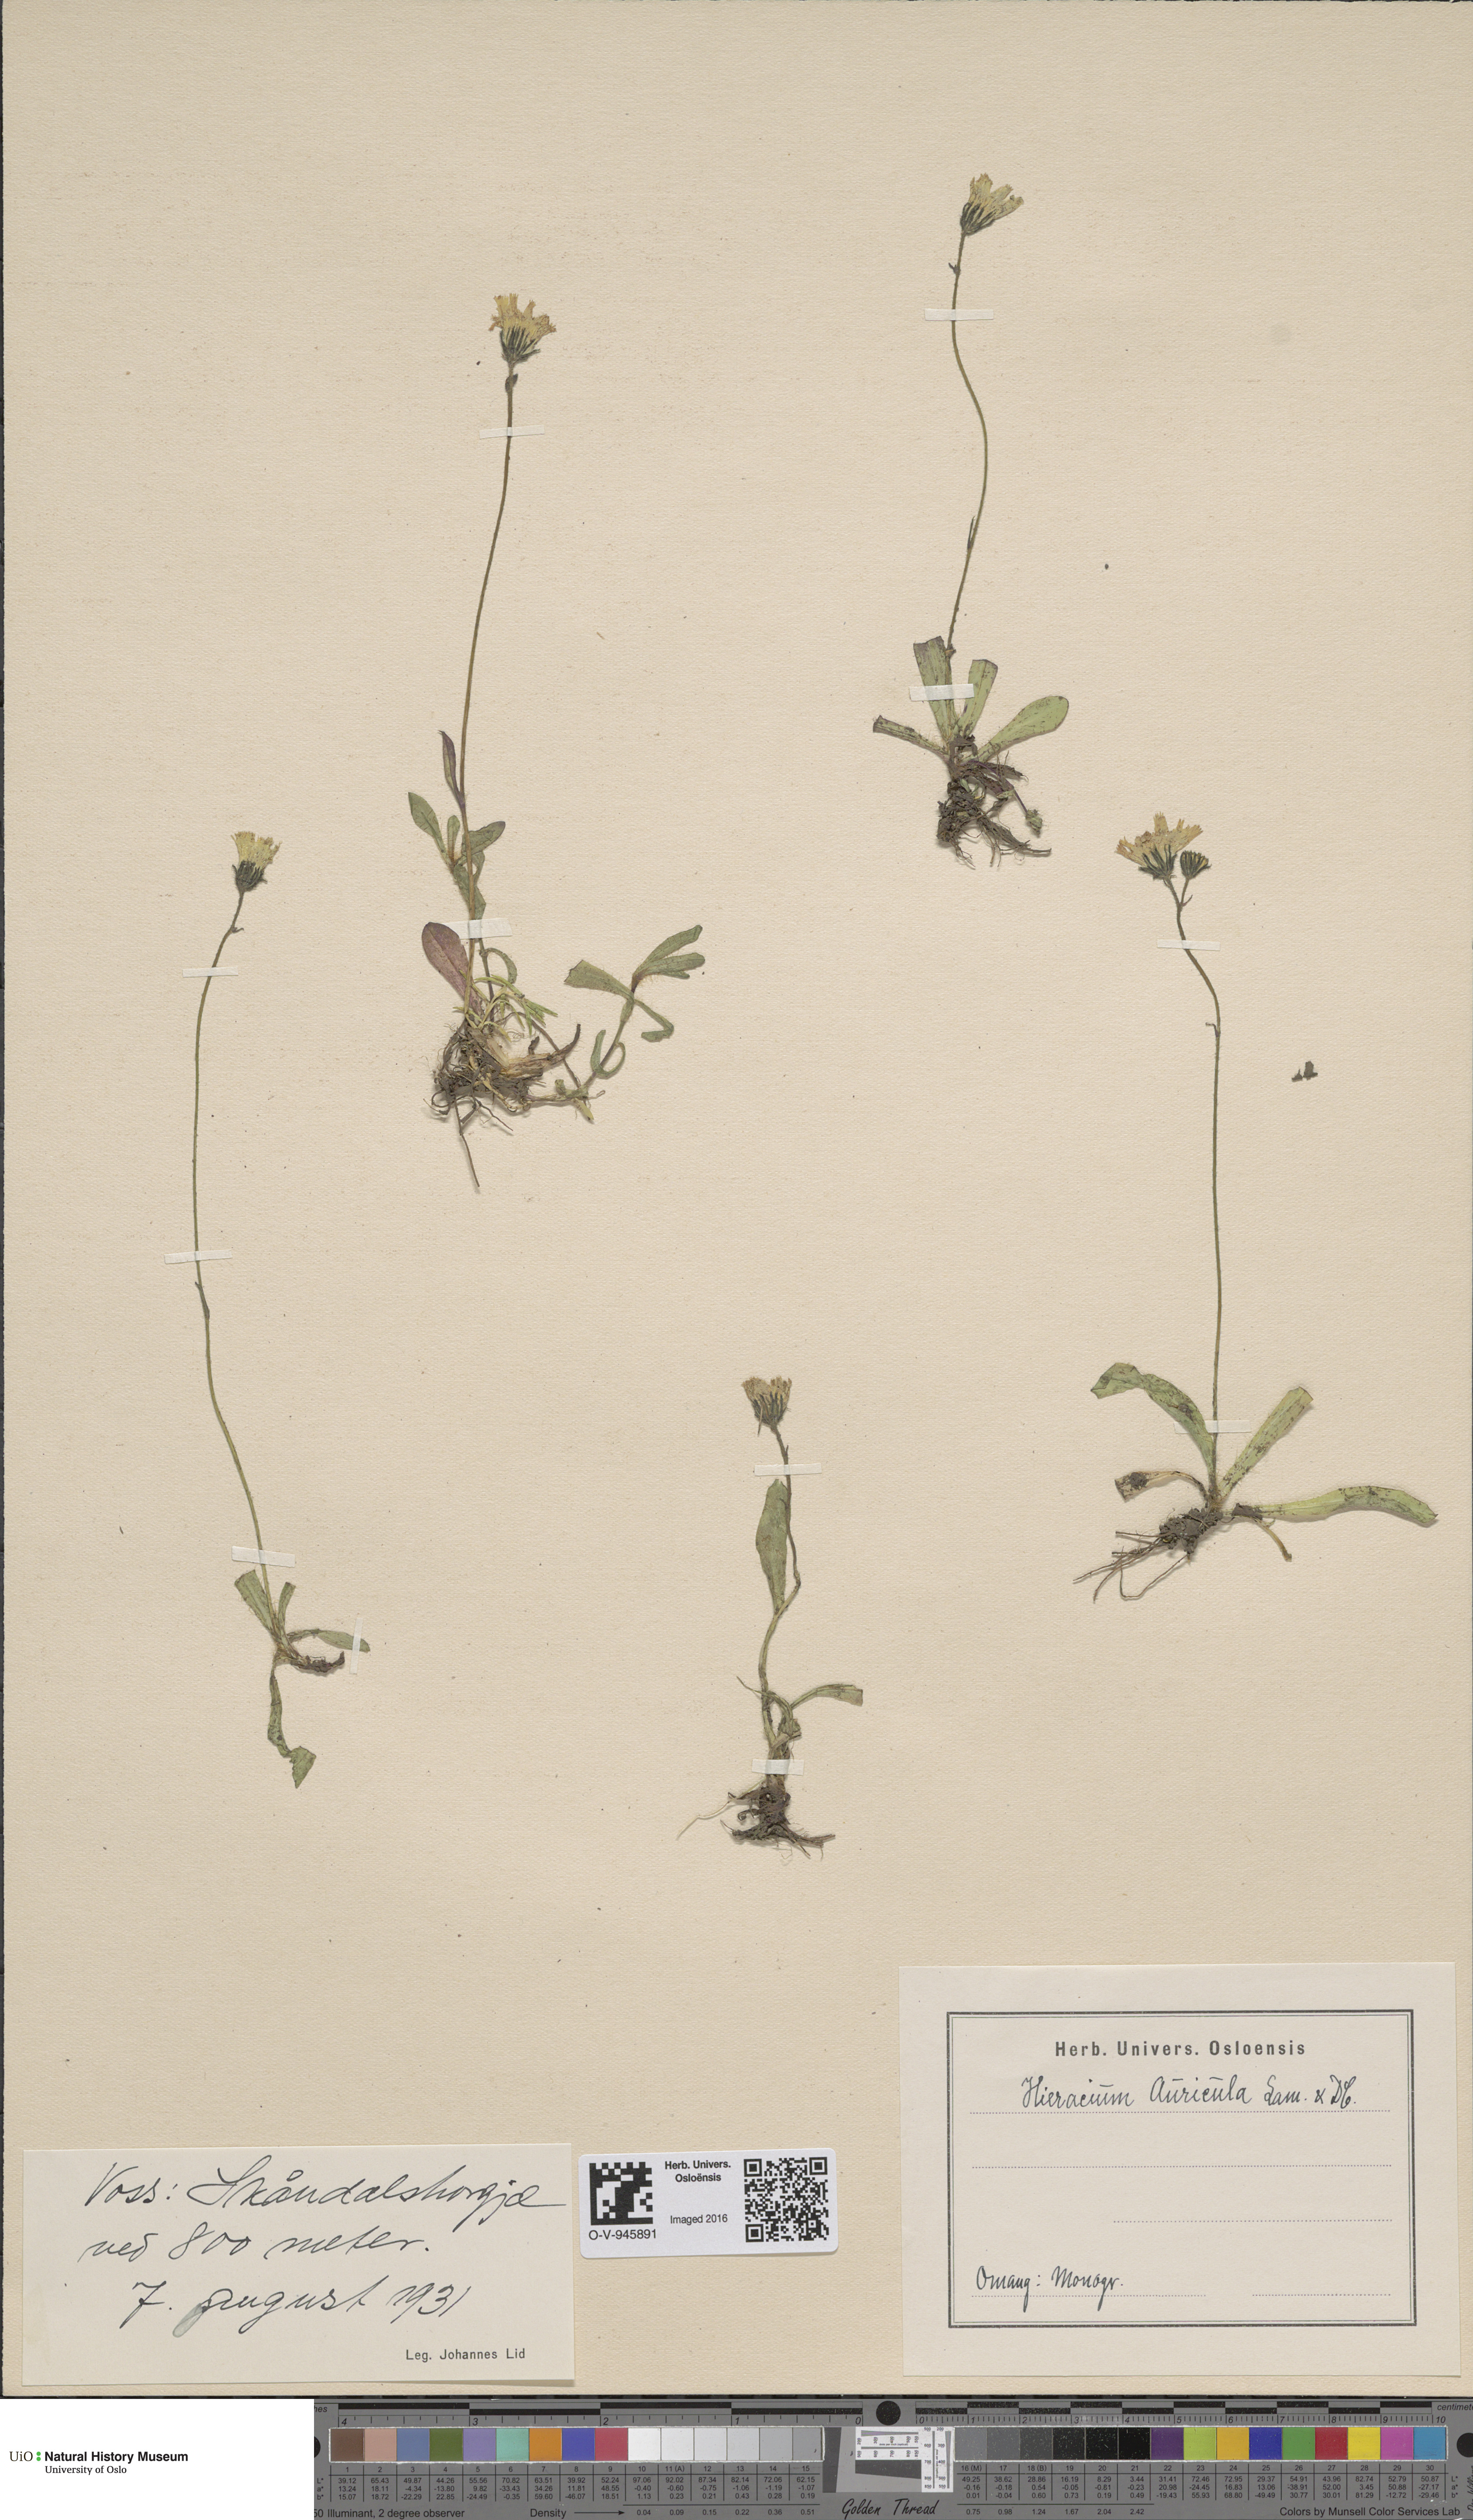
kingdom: Plantae
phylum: Tracheophyta
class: Magnoliopsida
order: Asterales
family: Asteraceae
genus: Pilosella
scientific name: Pilosella lactucella
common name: Glaucous fox-and-cubs
